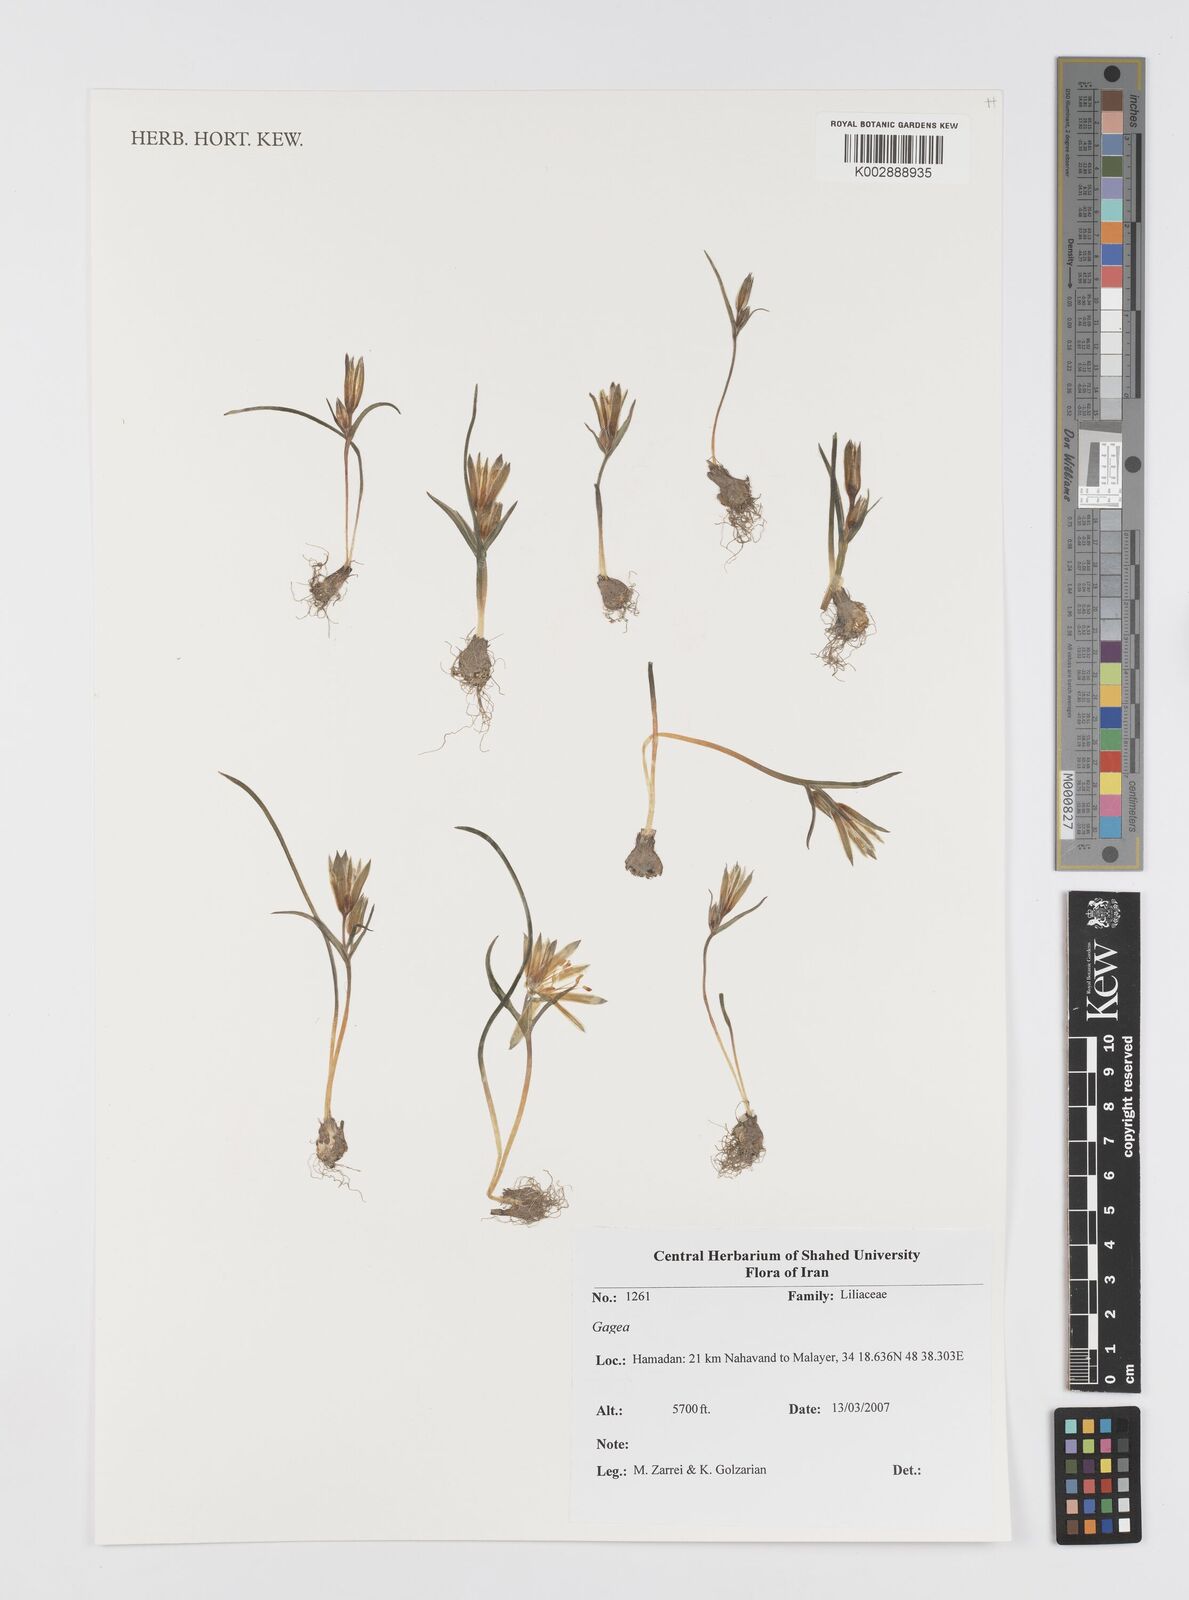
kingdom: Plantae
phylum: Tracheophyta
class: Liliopsida
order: Liliales
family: Liliaceae
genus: Gagea
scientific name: Gagea
